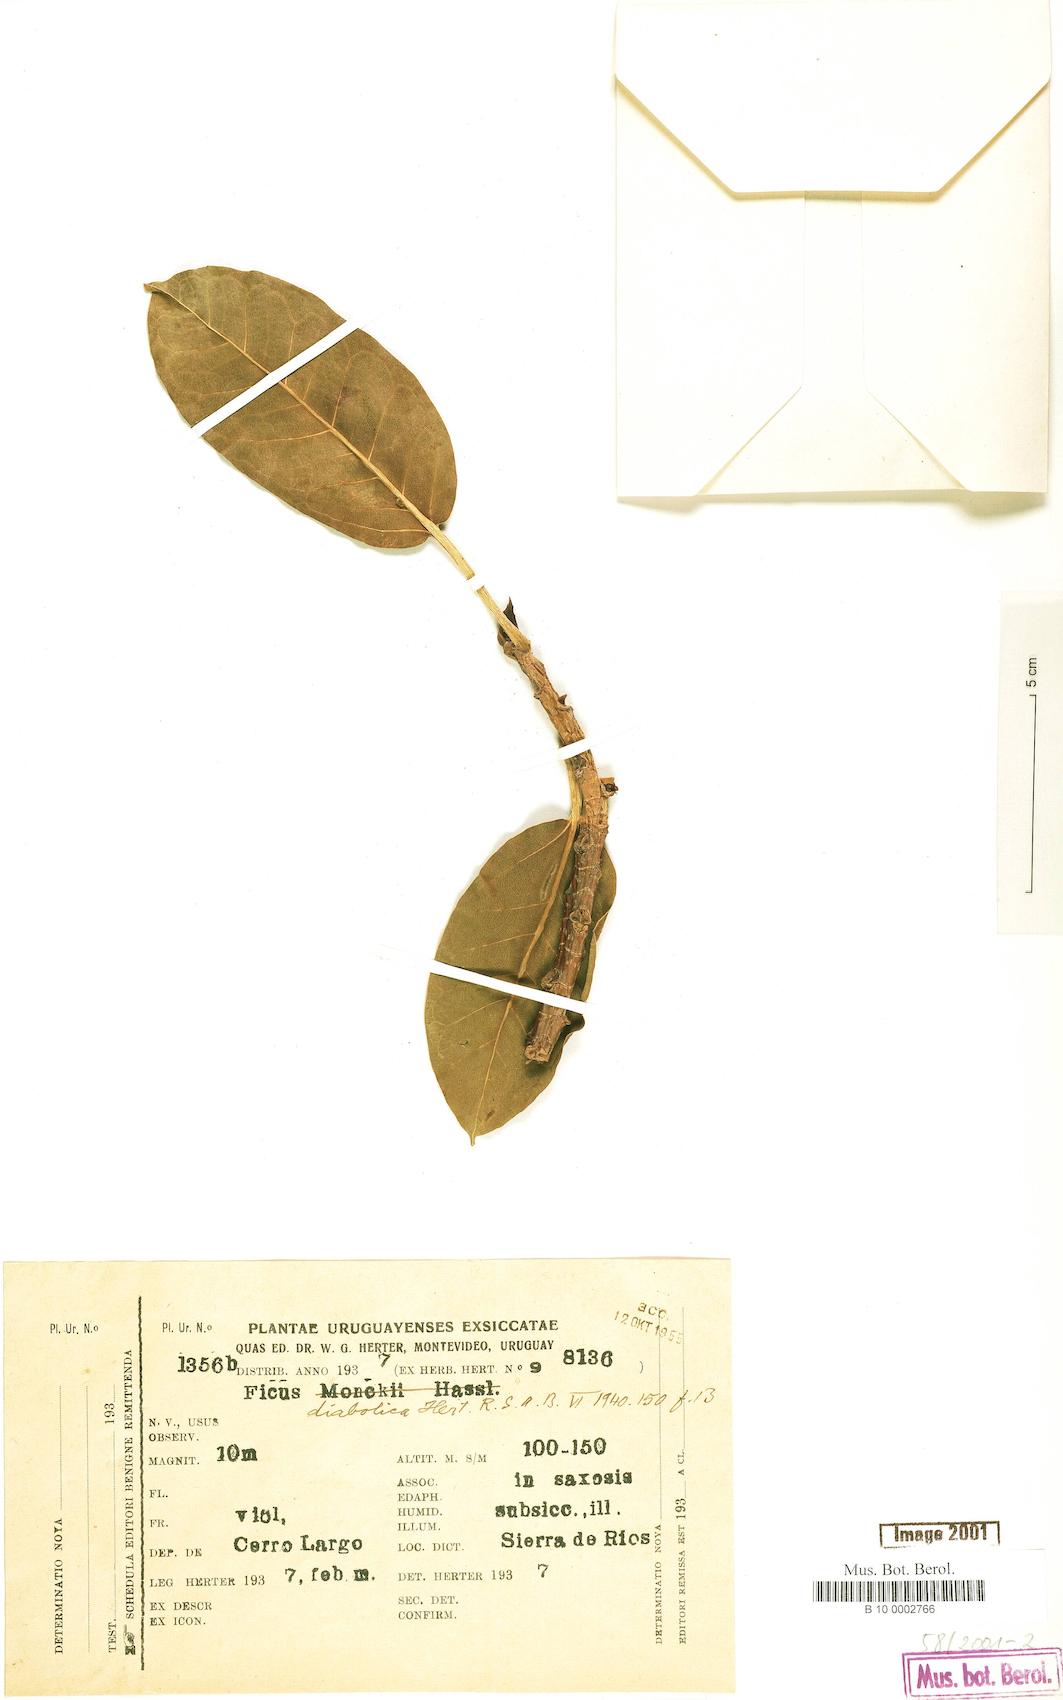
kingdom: Plantae
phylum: Tracheophyta
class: Magnoliopsida
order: Rosales
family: Moraceae
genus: Ficus
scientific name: Ficus luschnathiana
